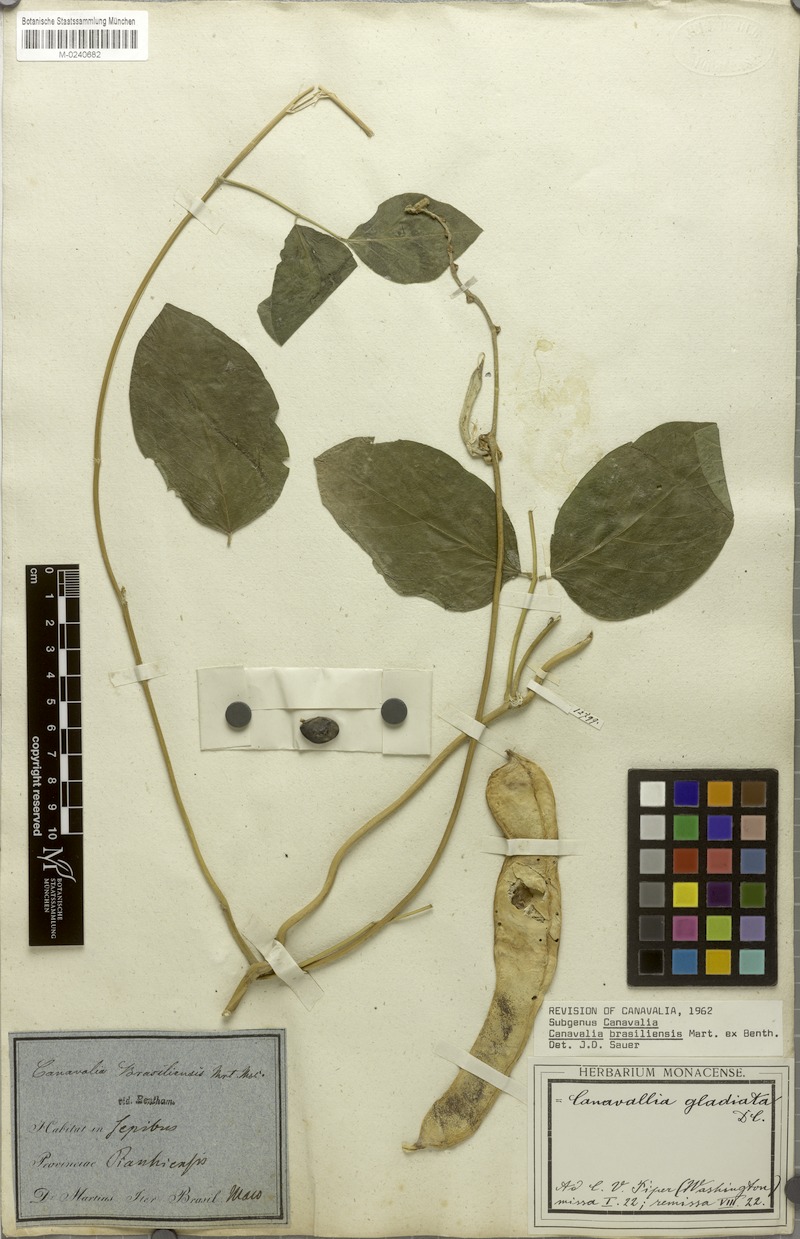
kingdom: Plantae
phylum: Tracheophyta
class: Magnoliopsida
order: Fabales
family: Fabaceae
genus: Canavalia
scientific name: Canavalia brasiliensis
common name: Barbicou-bean
